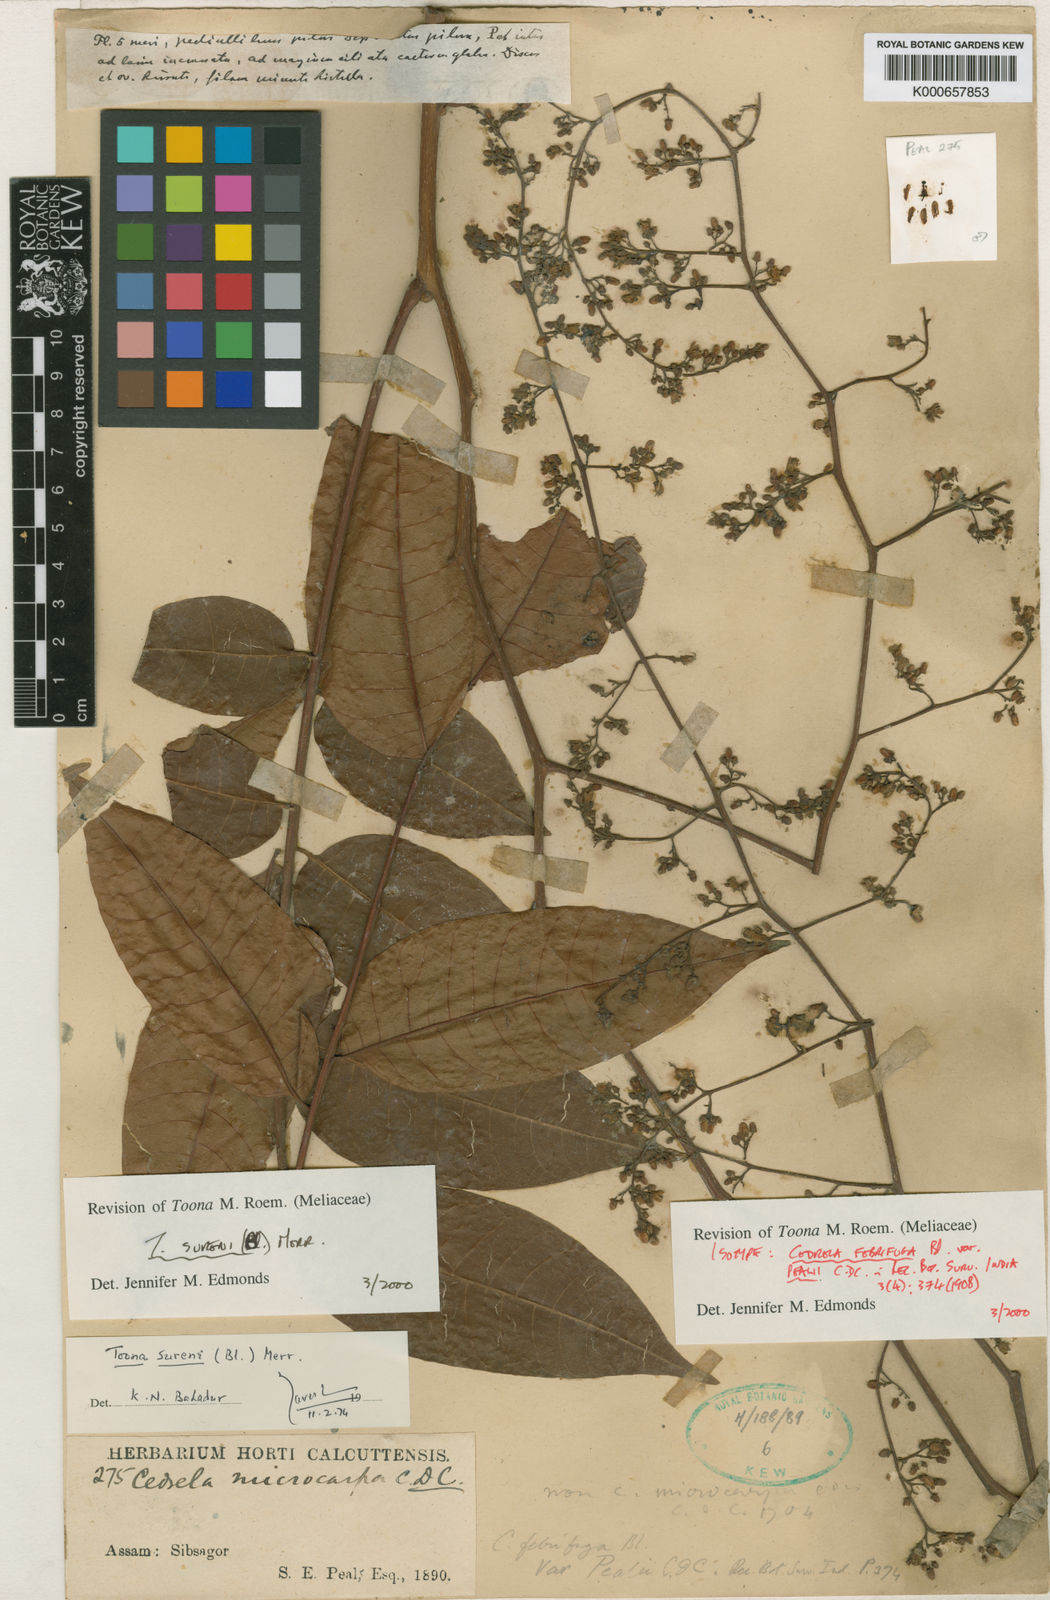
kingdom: Plantae
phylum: Tracheophyta
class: Magnoliopsida
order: Sapindales
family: Meliaceae
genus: Toona
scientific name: Toona sureni
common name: Red cedar
